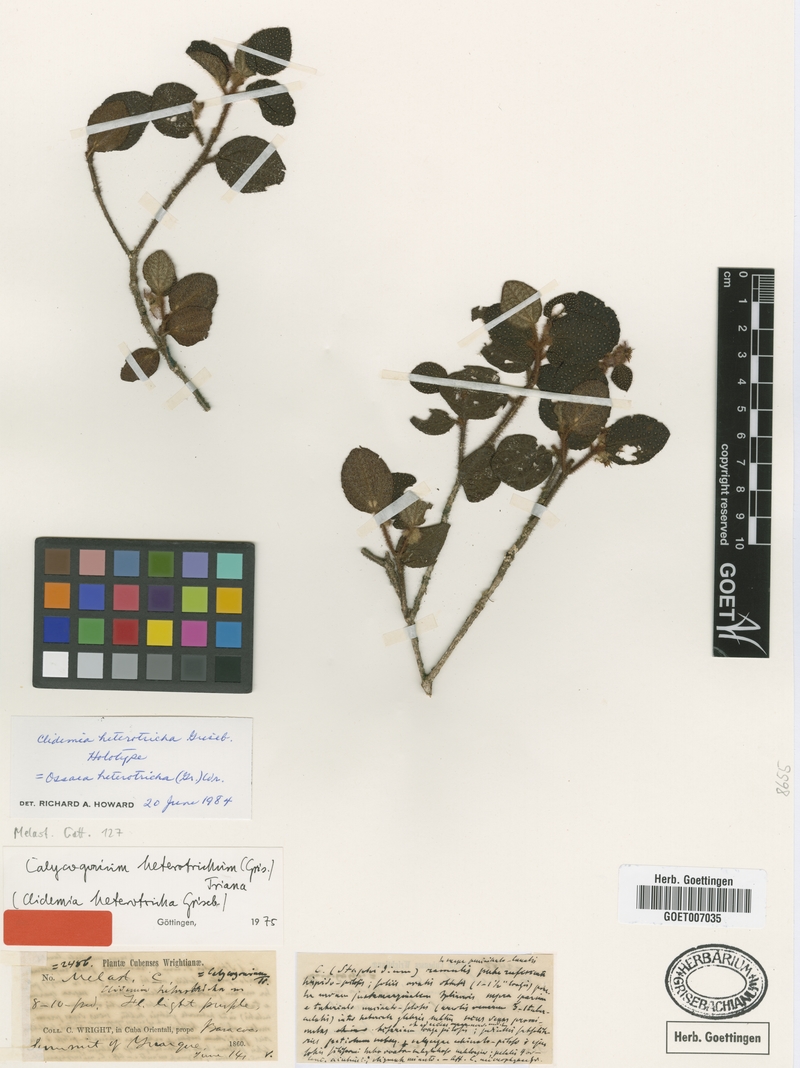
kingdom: Plantae
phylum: Tracheophyta
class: Magnoliopsida
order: Myrtales
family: Melastomataceae
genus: Miconia
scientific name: Miconia yunquensis
